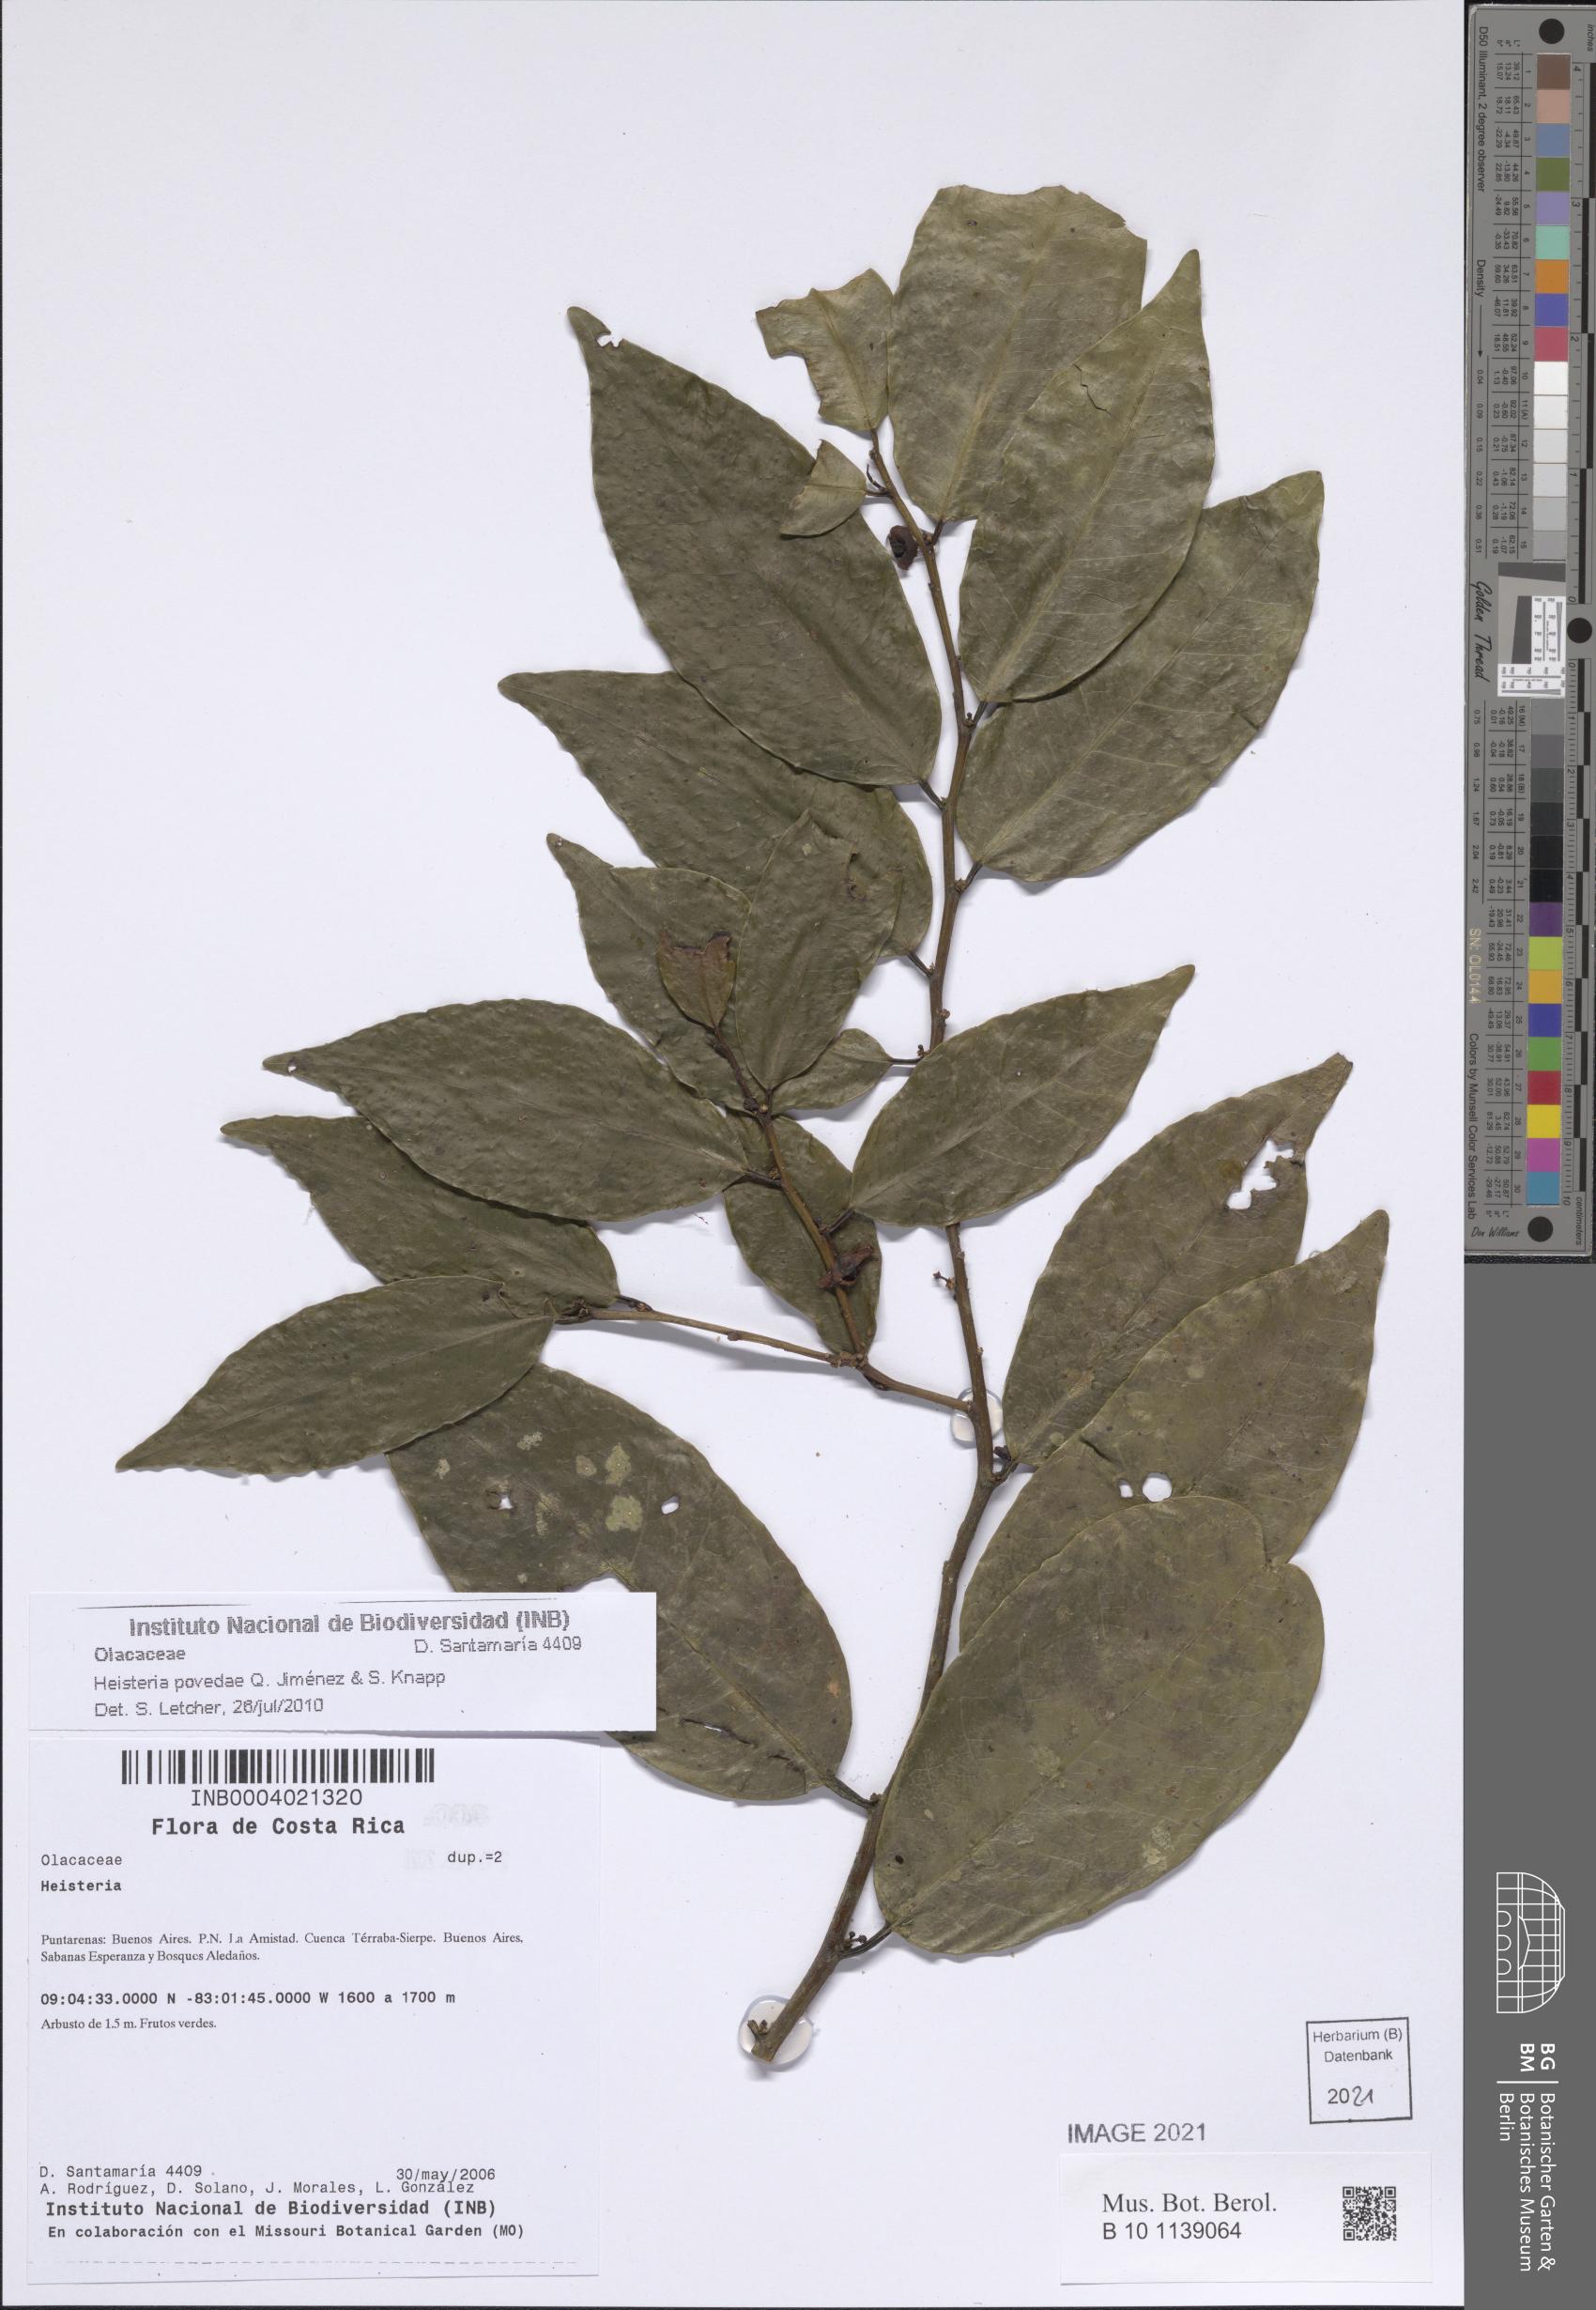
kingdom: Plantae
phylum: Tracheophyta
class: Magnoliopsida
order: Santalales
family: Erythropalaceae
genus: Heisteria
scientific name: Heisteria povedae
